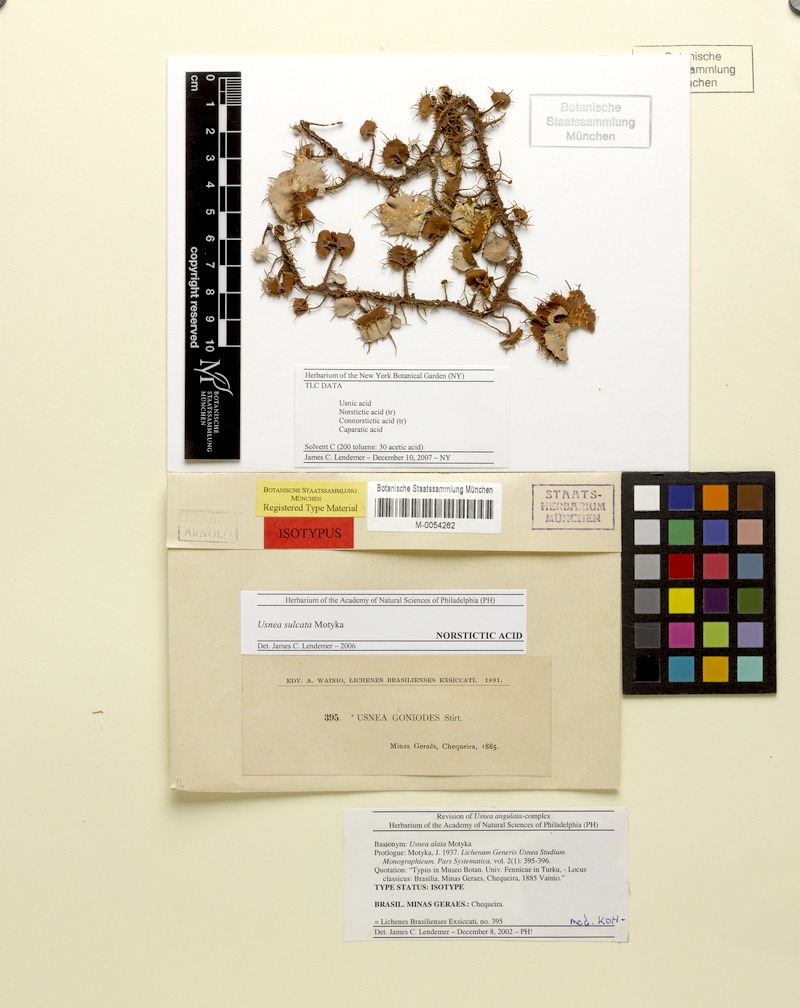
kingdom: Fungi
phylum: Ascomycota
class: Lecanoromycetes
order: Lecanorales
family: Parmeliaceae
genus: Usnea
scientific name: Usnea sulcata
